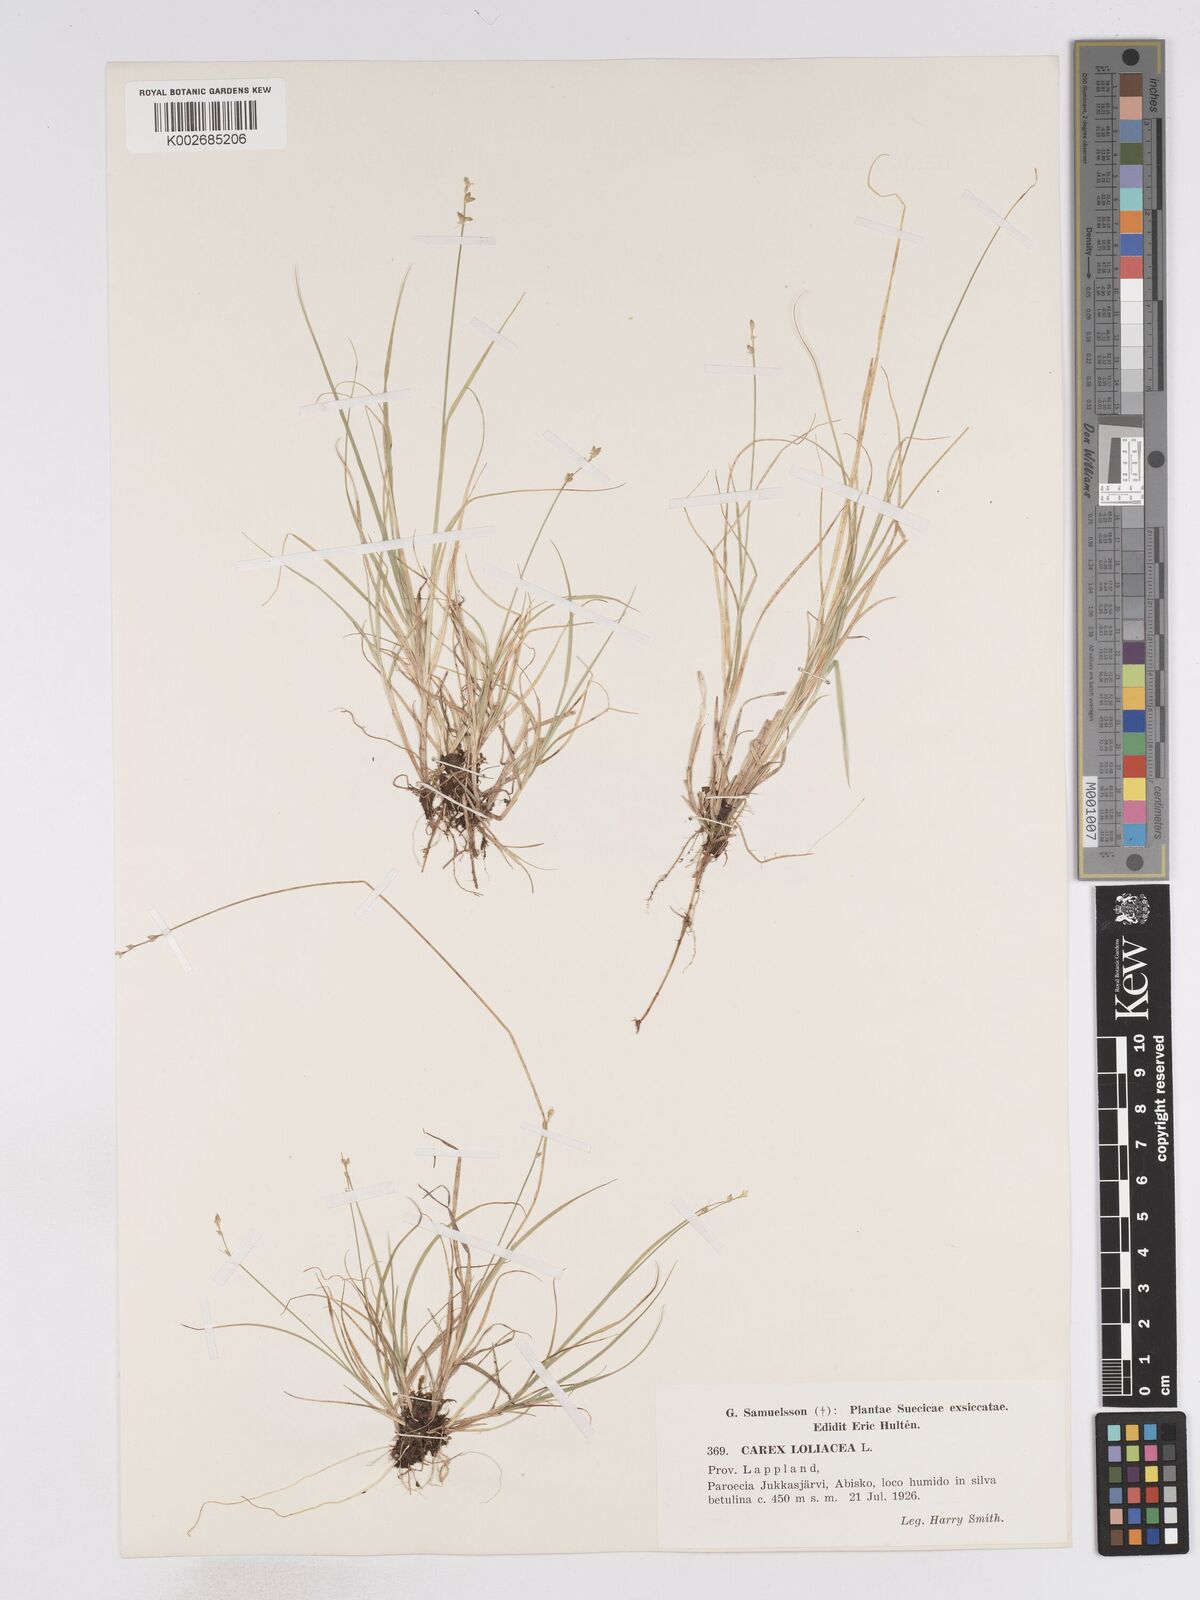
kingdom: Plantae
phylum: Tracheophyta
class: Liliopsida
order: Poales
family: Cyperaceae
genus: Carex
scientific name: Carex loliacea
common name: Ryegrass sedge
